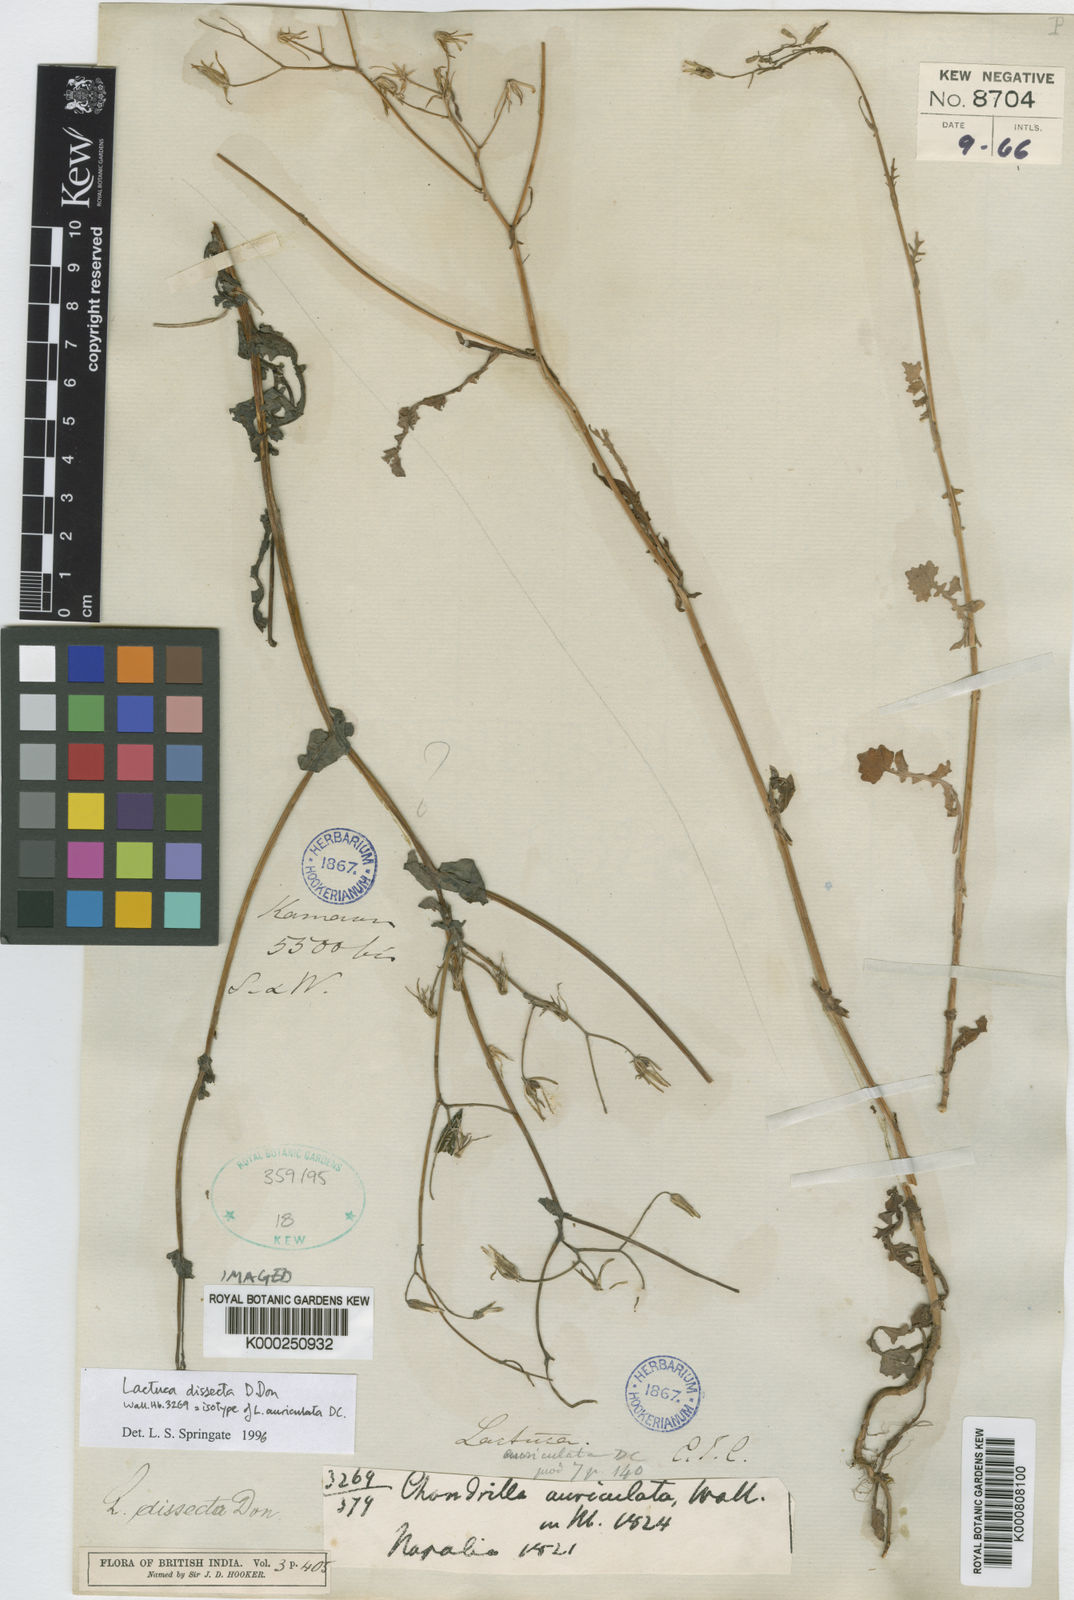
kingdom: Plantae
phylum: Tracheophyta
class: Magnoliopsida
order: Asterales
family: Asteraceae
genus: Lactuca
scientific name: Lactuca dissecta
